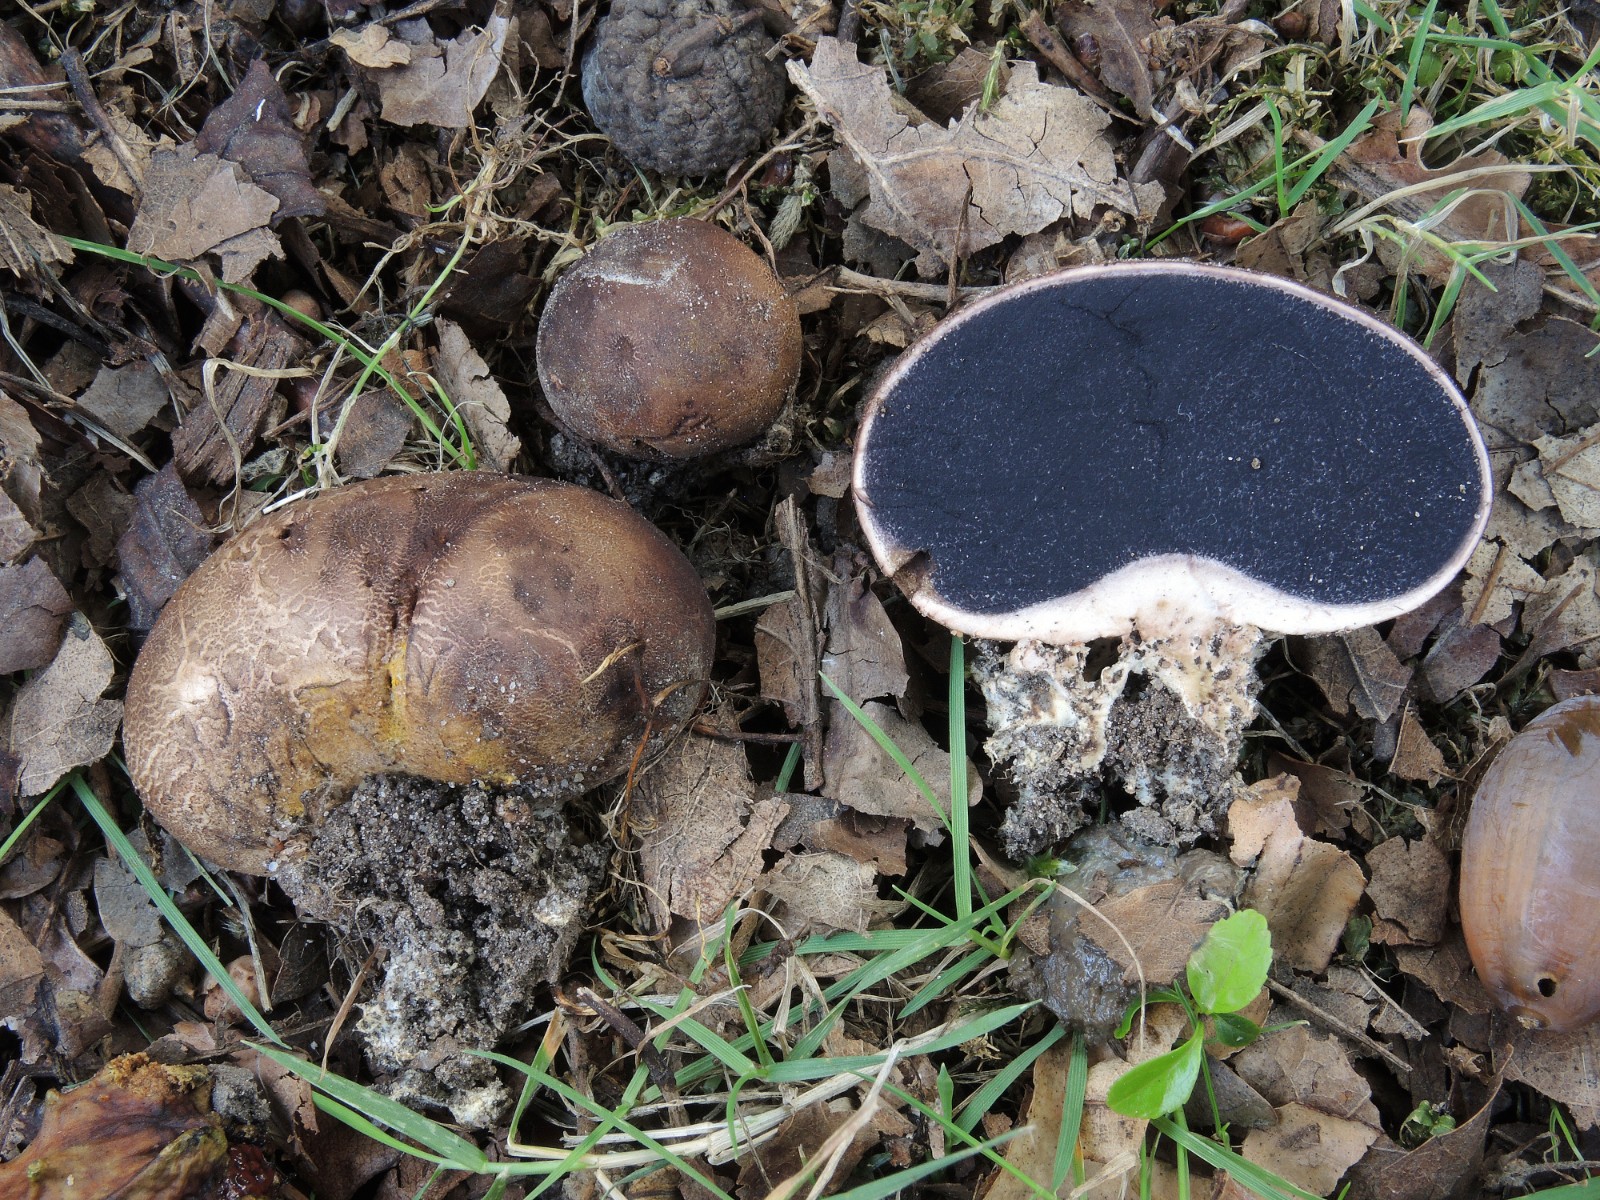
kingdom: Fungi
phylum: Basidiomycota
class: Agaricomycetes
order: Boletales
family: Sclerodermataceae
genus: Scleroderma
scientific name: Scleroderma cepa
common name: rødbrun bruskbold
